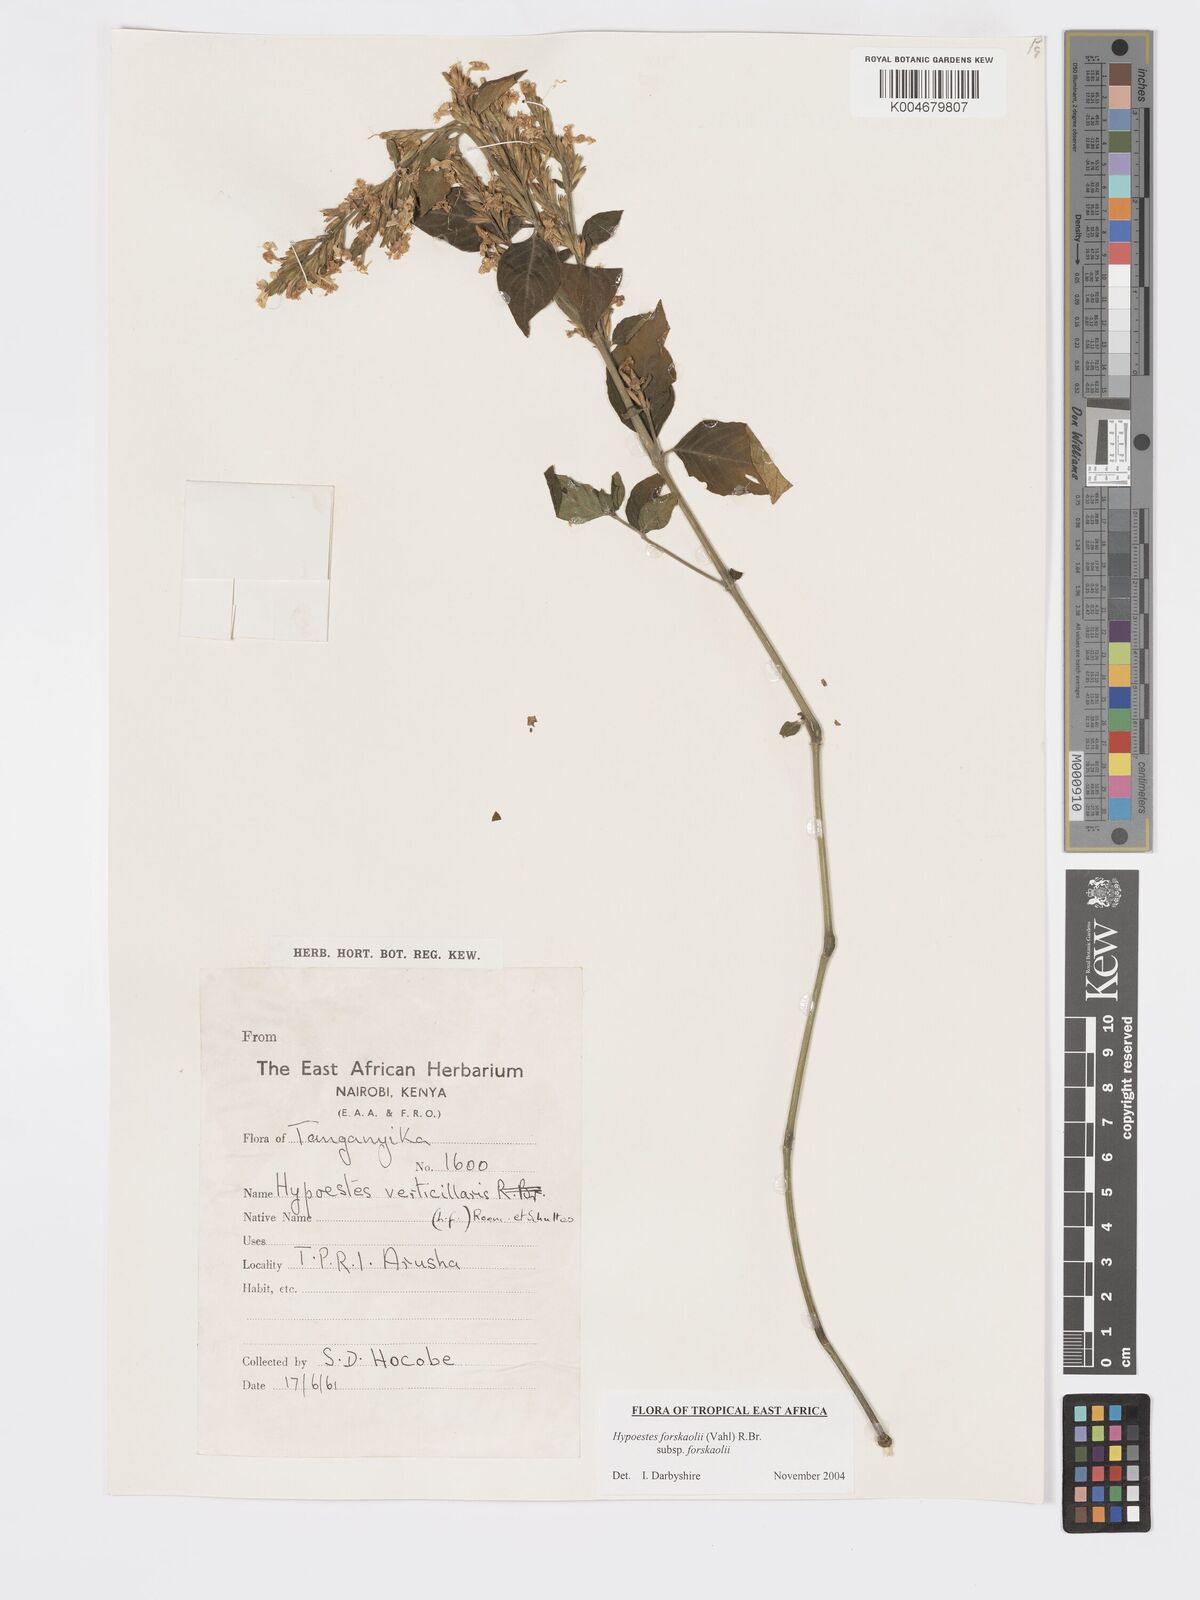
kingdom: Plantae
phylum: Tracheophyta
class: Magnoliopsida
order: Lamiales
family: Acanthaceae
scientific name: Acanthaceae
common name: Acanthaceae
